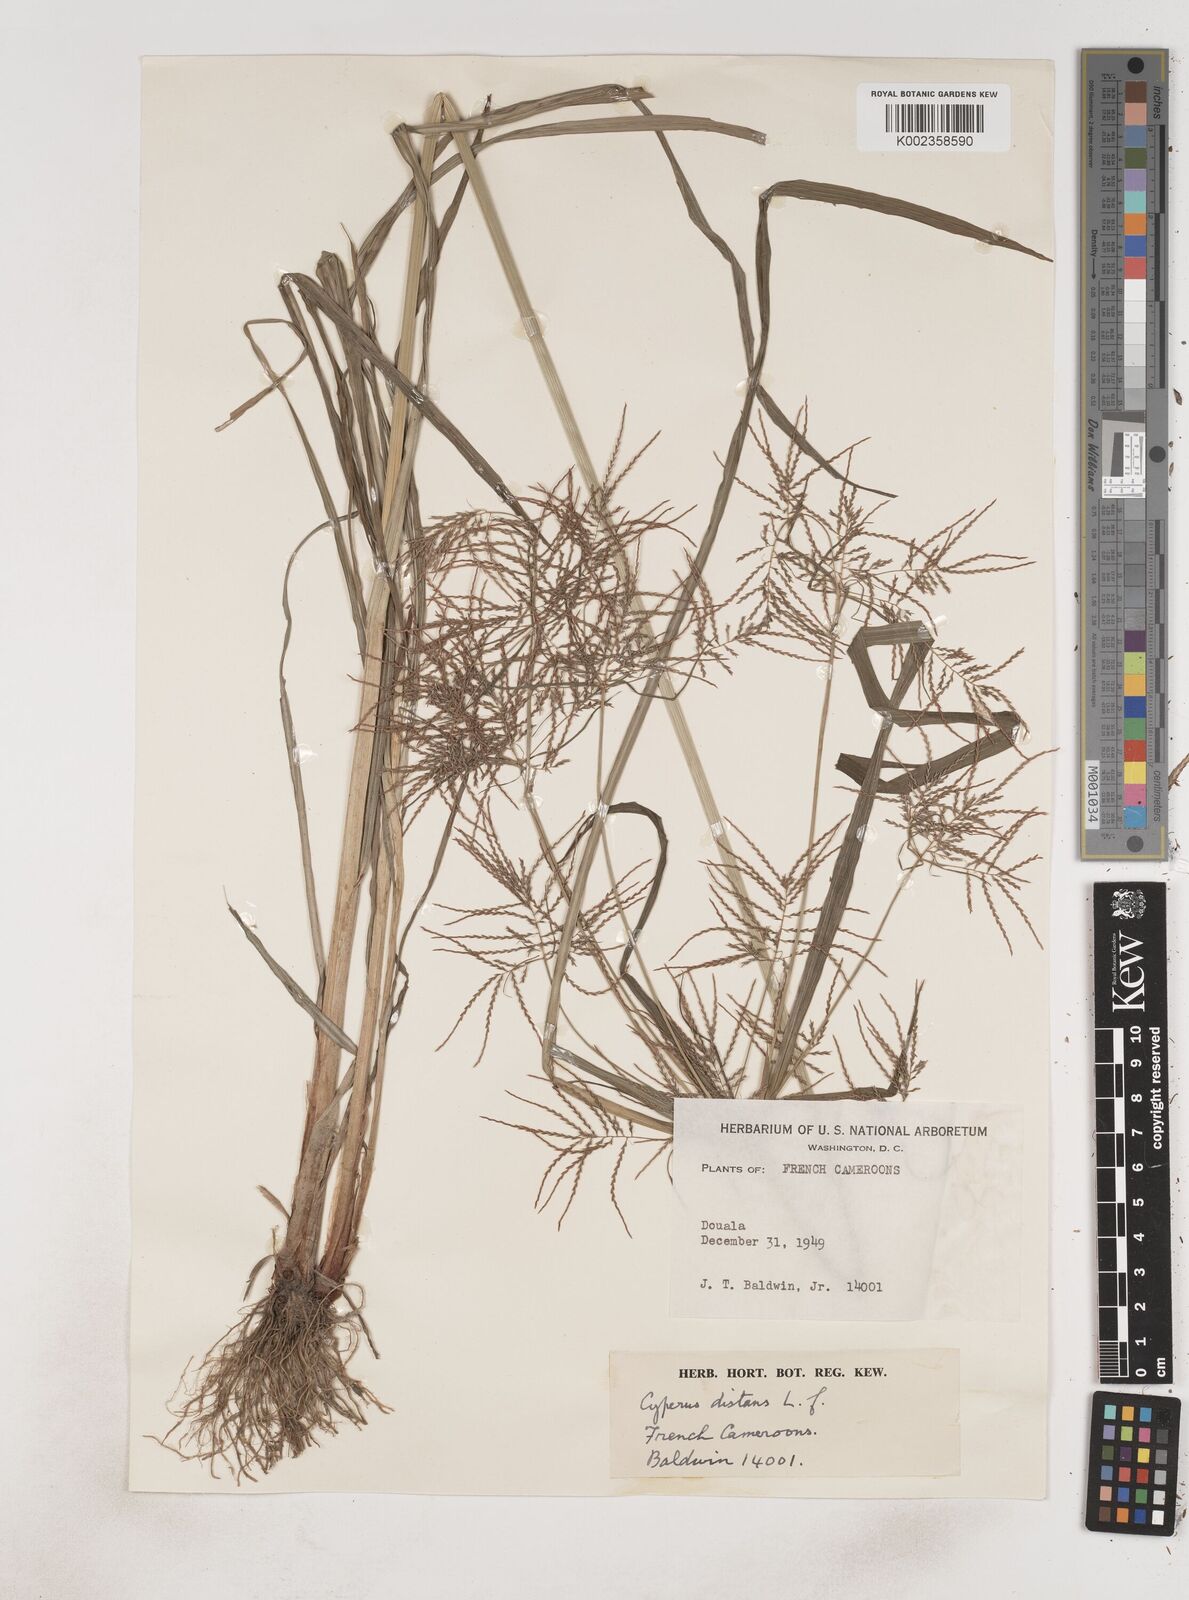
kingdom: Plantae
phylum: Tracheophyta
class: Liliopsida
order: Poales
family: Cyperaceae
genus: Cyperus
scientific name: Cyperus distans
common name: Slender cyperus
